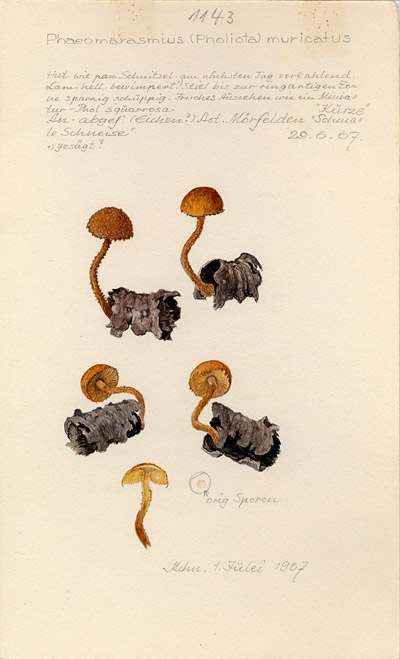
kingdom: Fungi
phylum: Basidiomycota
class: Agaricomycetes
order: Agaricales
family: Tubariaceae
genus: Flammulaster
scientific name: Flammulaster muricatus
